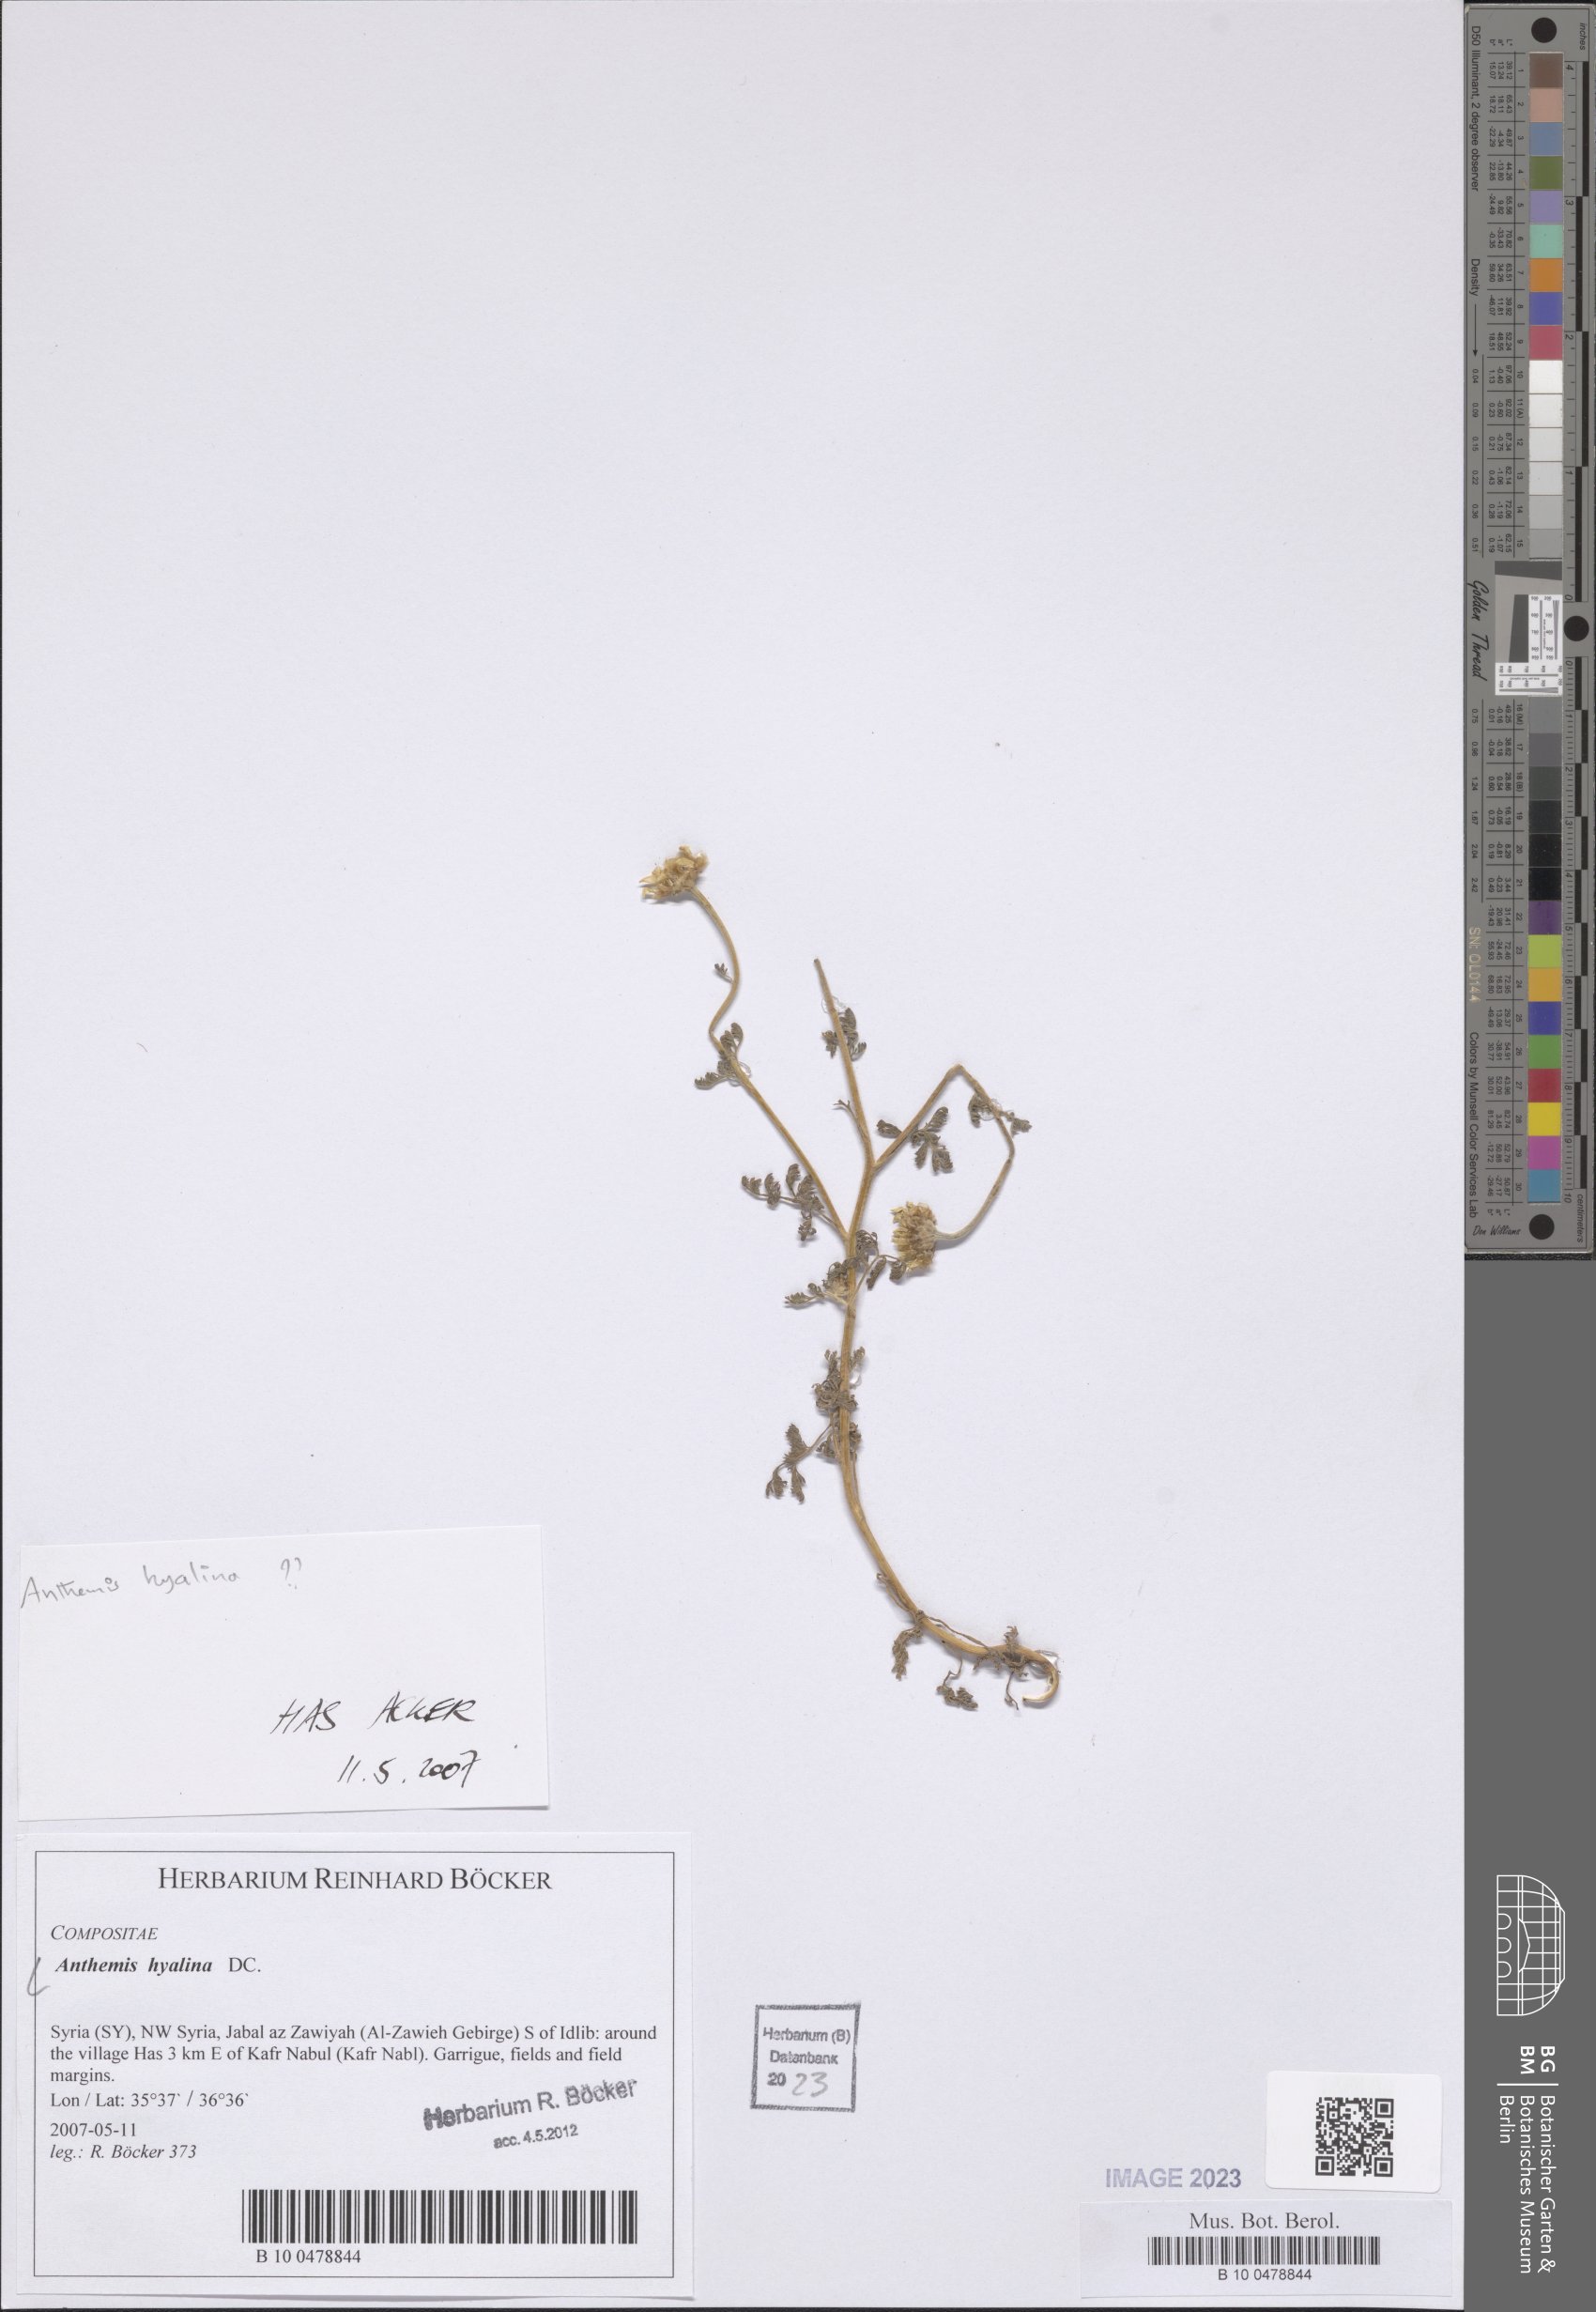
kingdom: Plantae
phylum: Tracheophyta
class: Magnoliopsida
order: Asterales
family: Asteraceae
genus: Anthemis
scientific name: Anthemis hyalina
